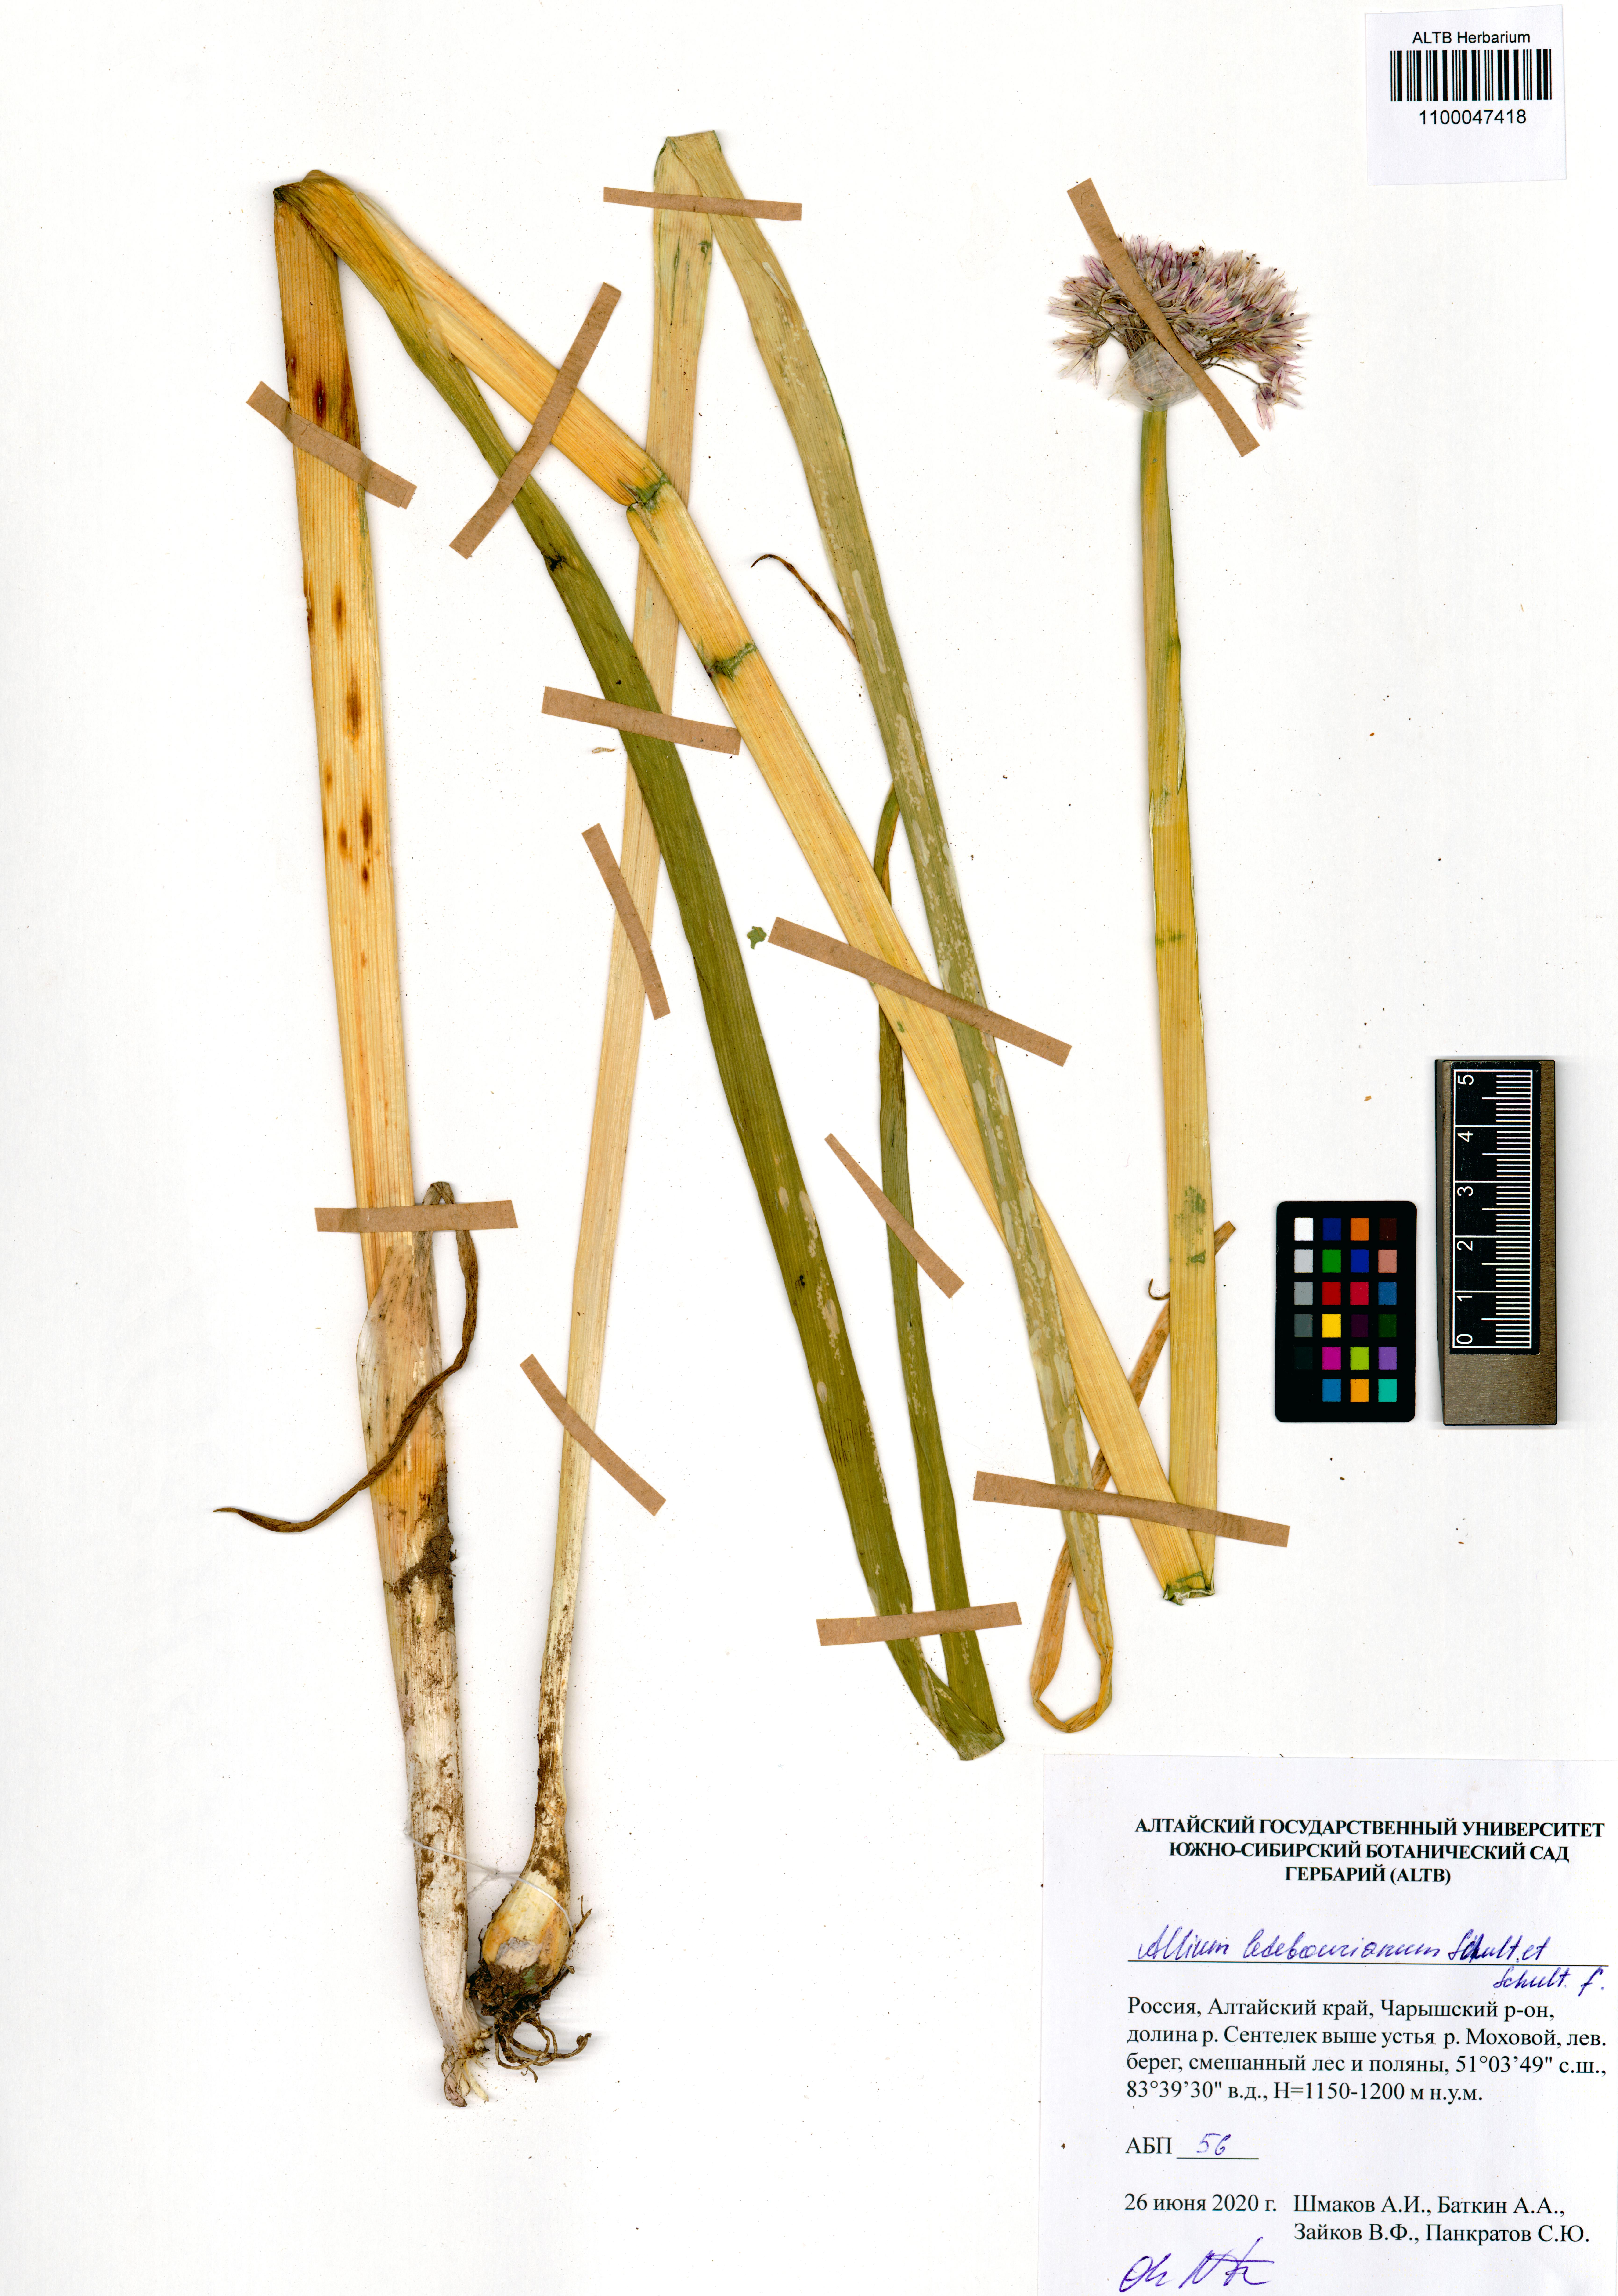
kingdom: Plantae
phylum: Tracheophyta
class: Liliopsida
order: Asparagales
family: Amaryllidaceae
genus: Allium
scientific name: Allium ledebourianum
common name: Ledebour chive
